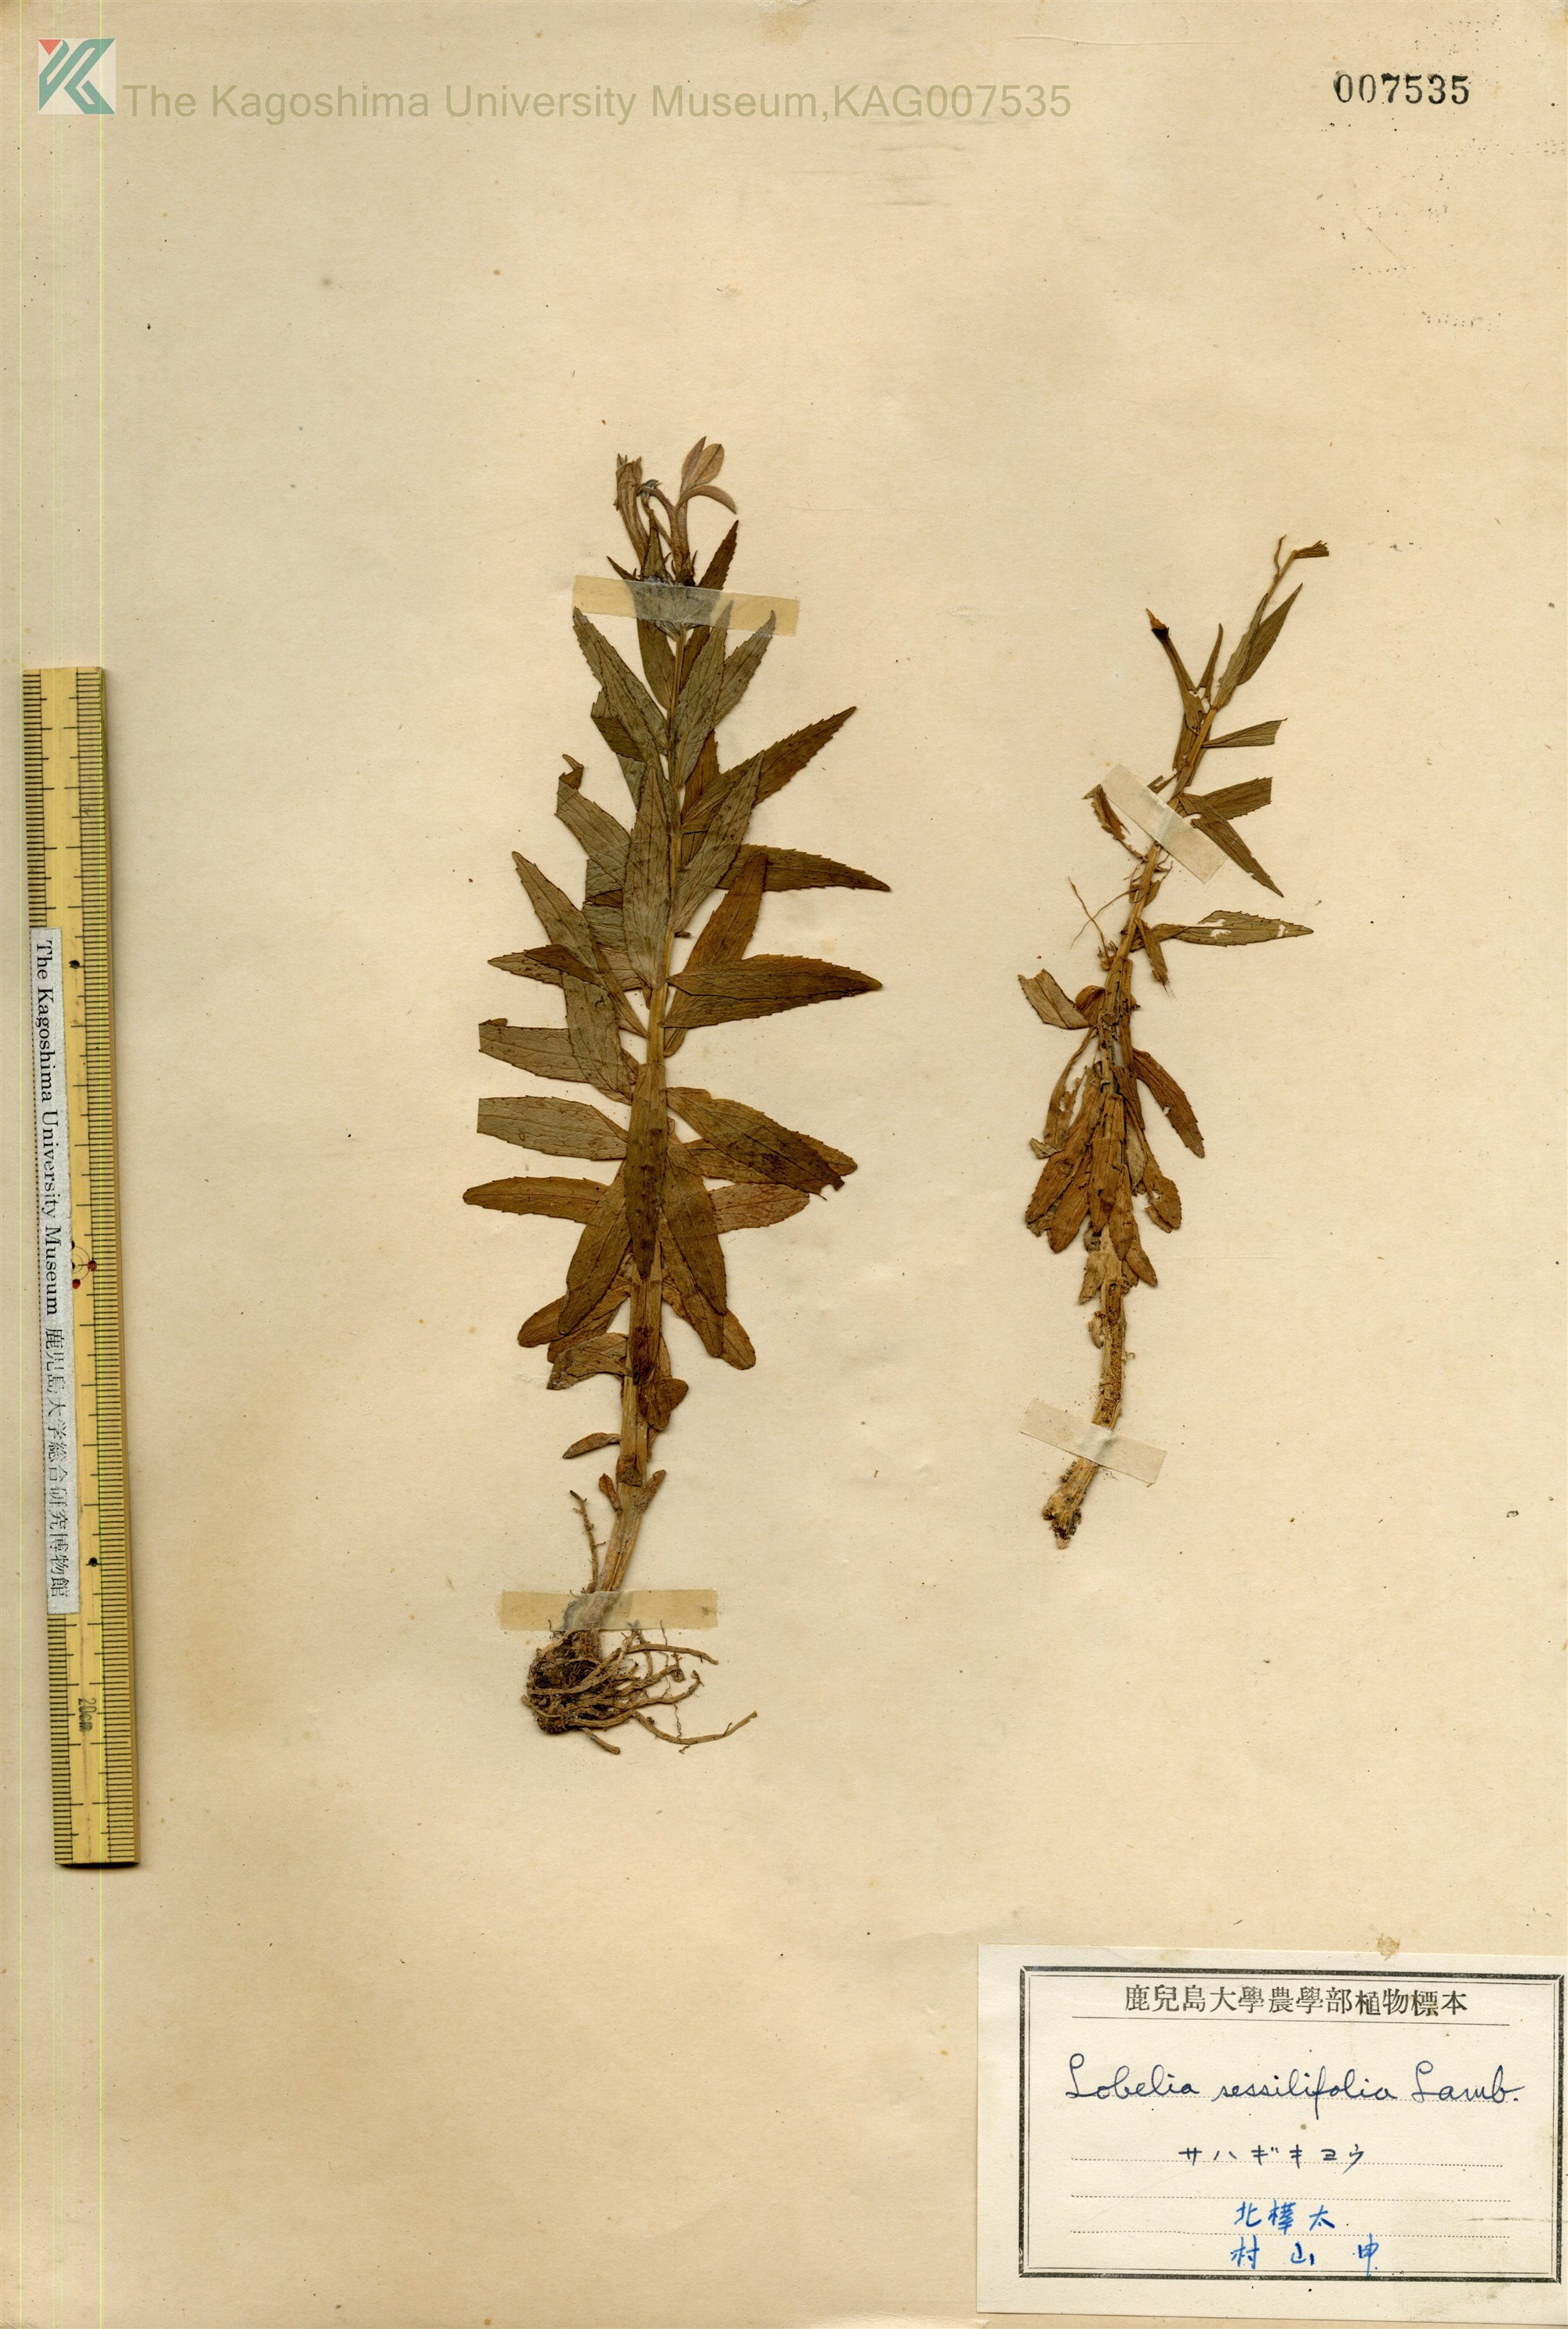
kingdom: Plantae
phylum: Tracheophyta
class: Magnoliopsida
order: Asterales
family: Campanulaceae
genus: Lobelia
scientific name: Lobelia sessilifolia
